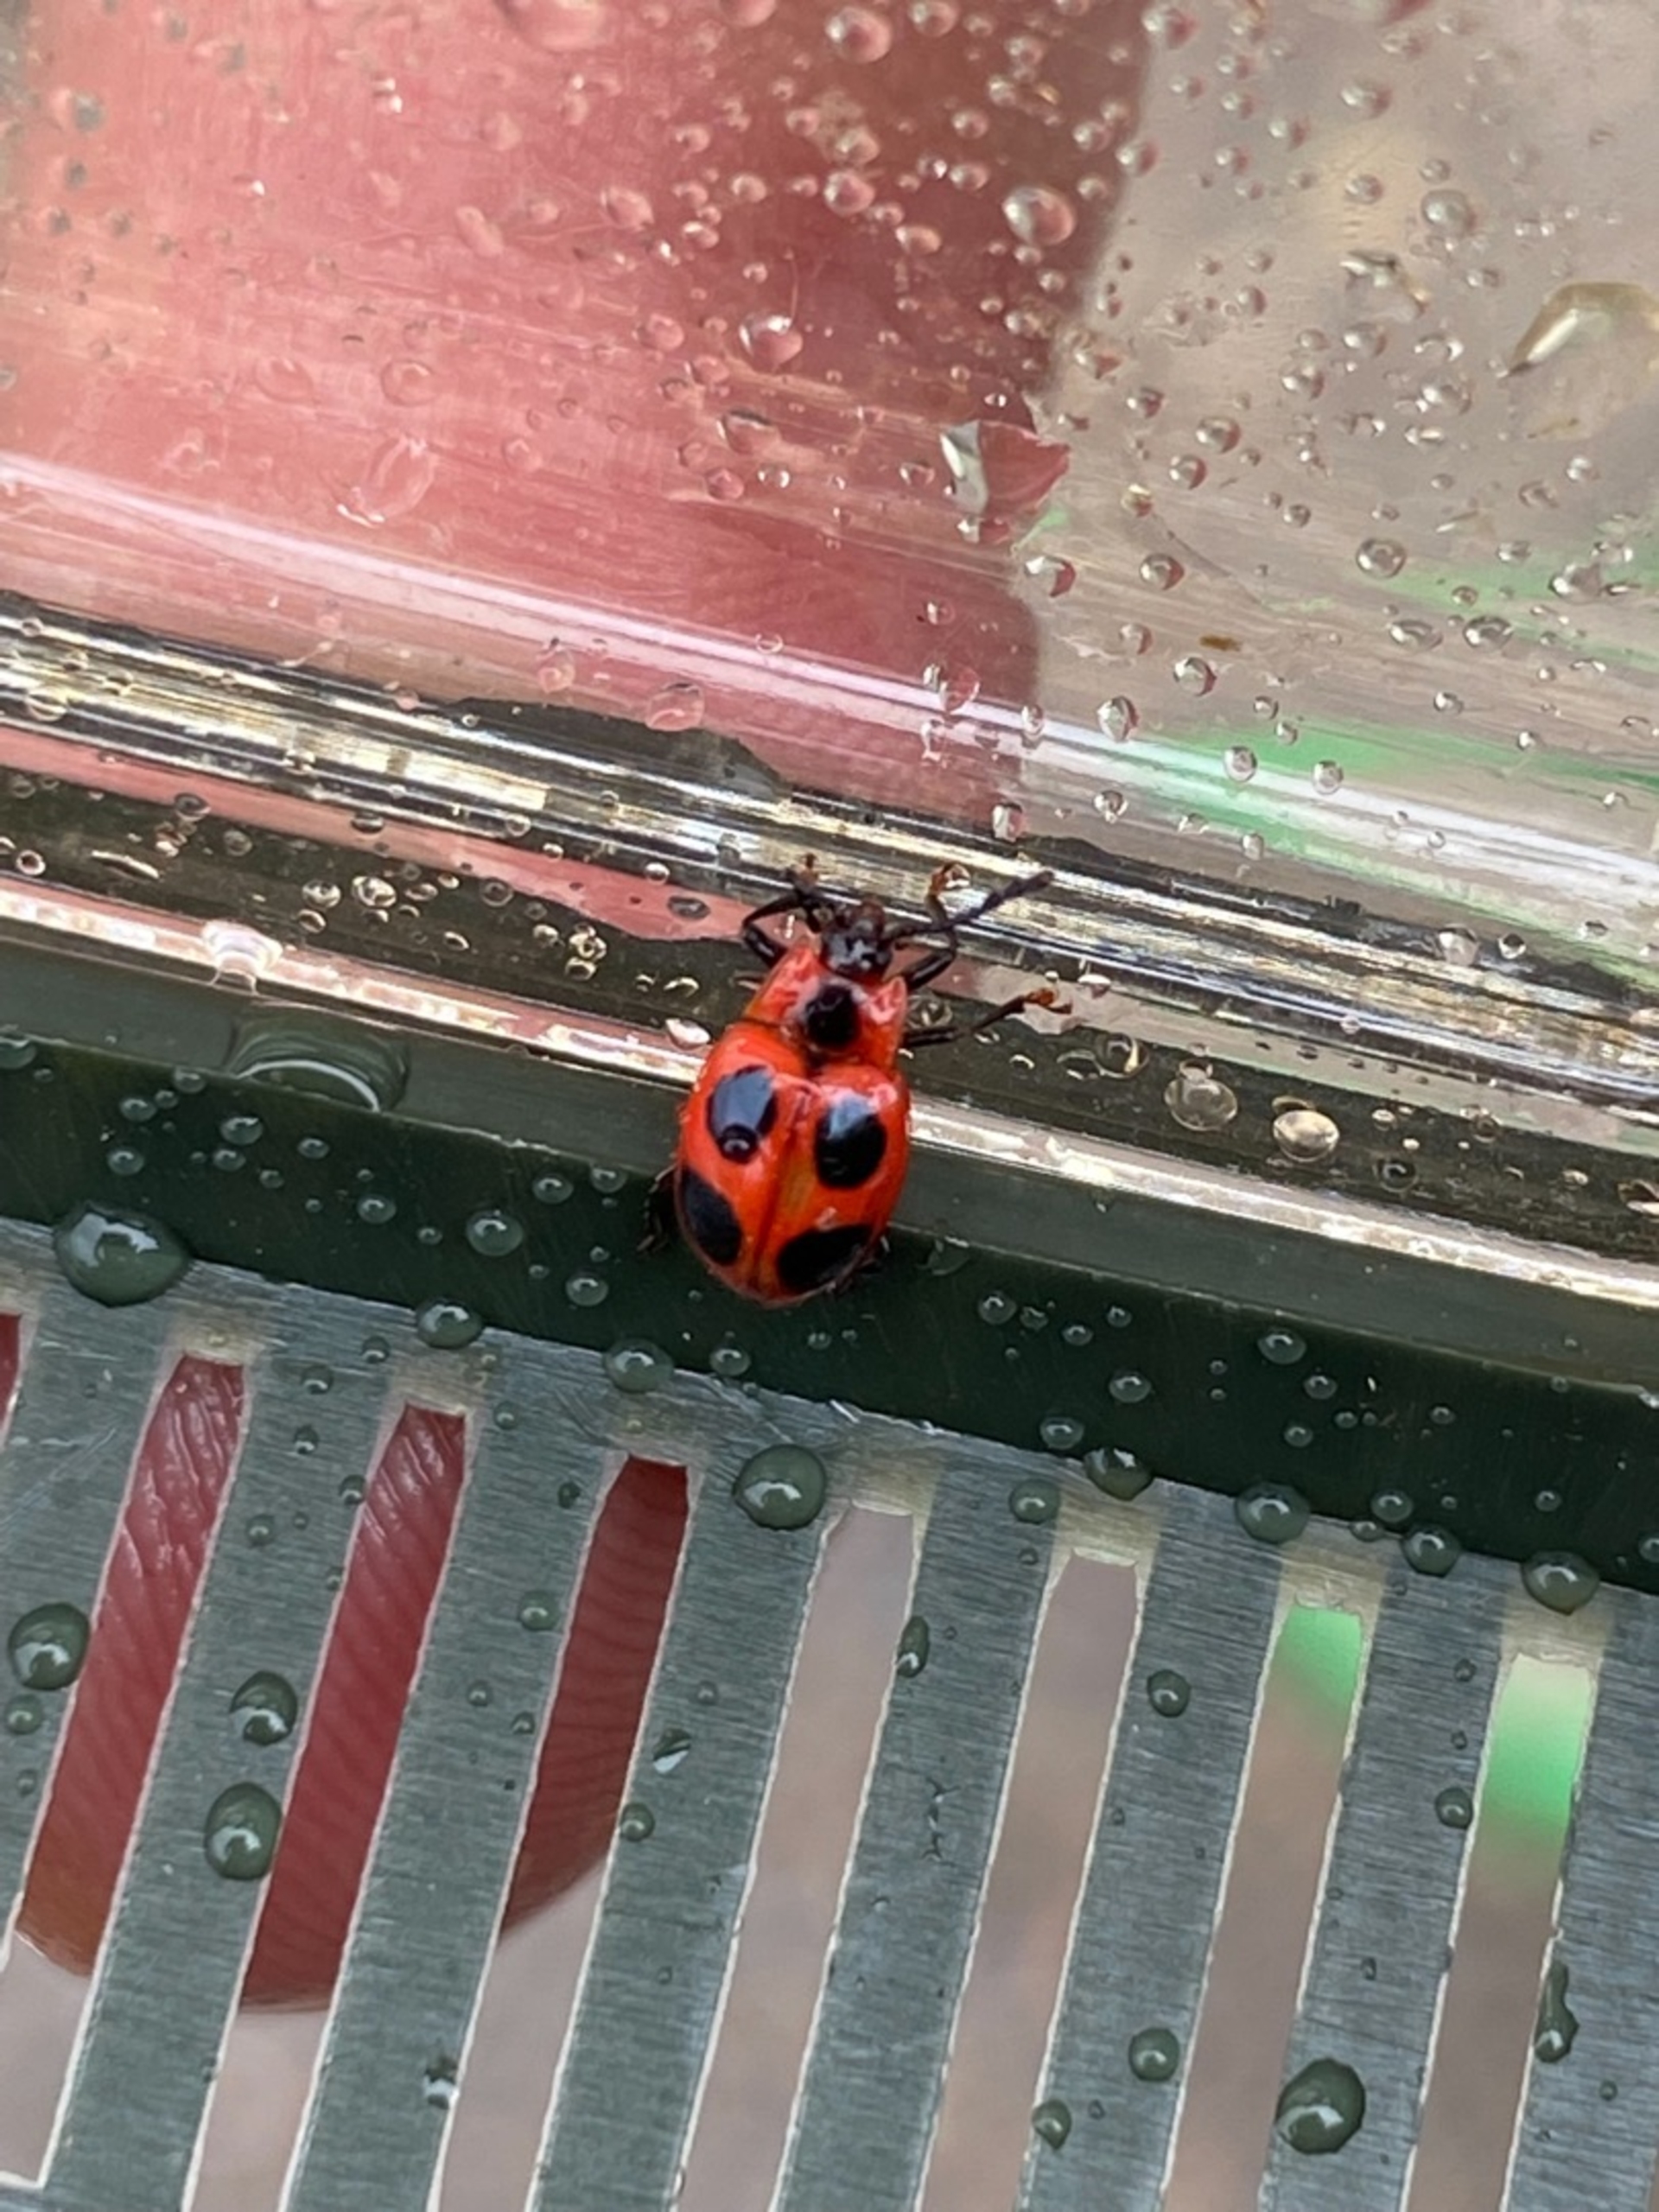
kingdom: Animalia
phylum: Arthropoda
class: Insecta
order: Coleoptera
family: Endomychidae
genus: Endomychus
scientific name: Endomychus coccineus
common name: Skarlagensvampehøne
